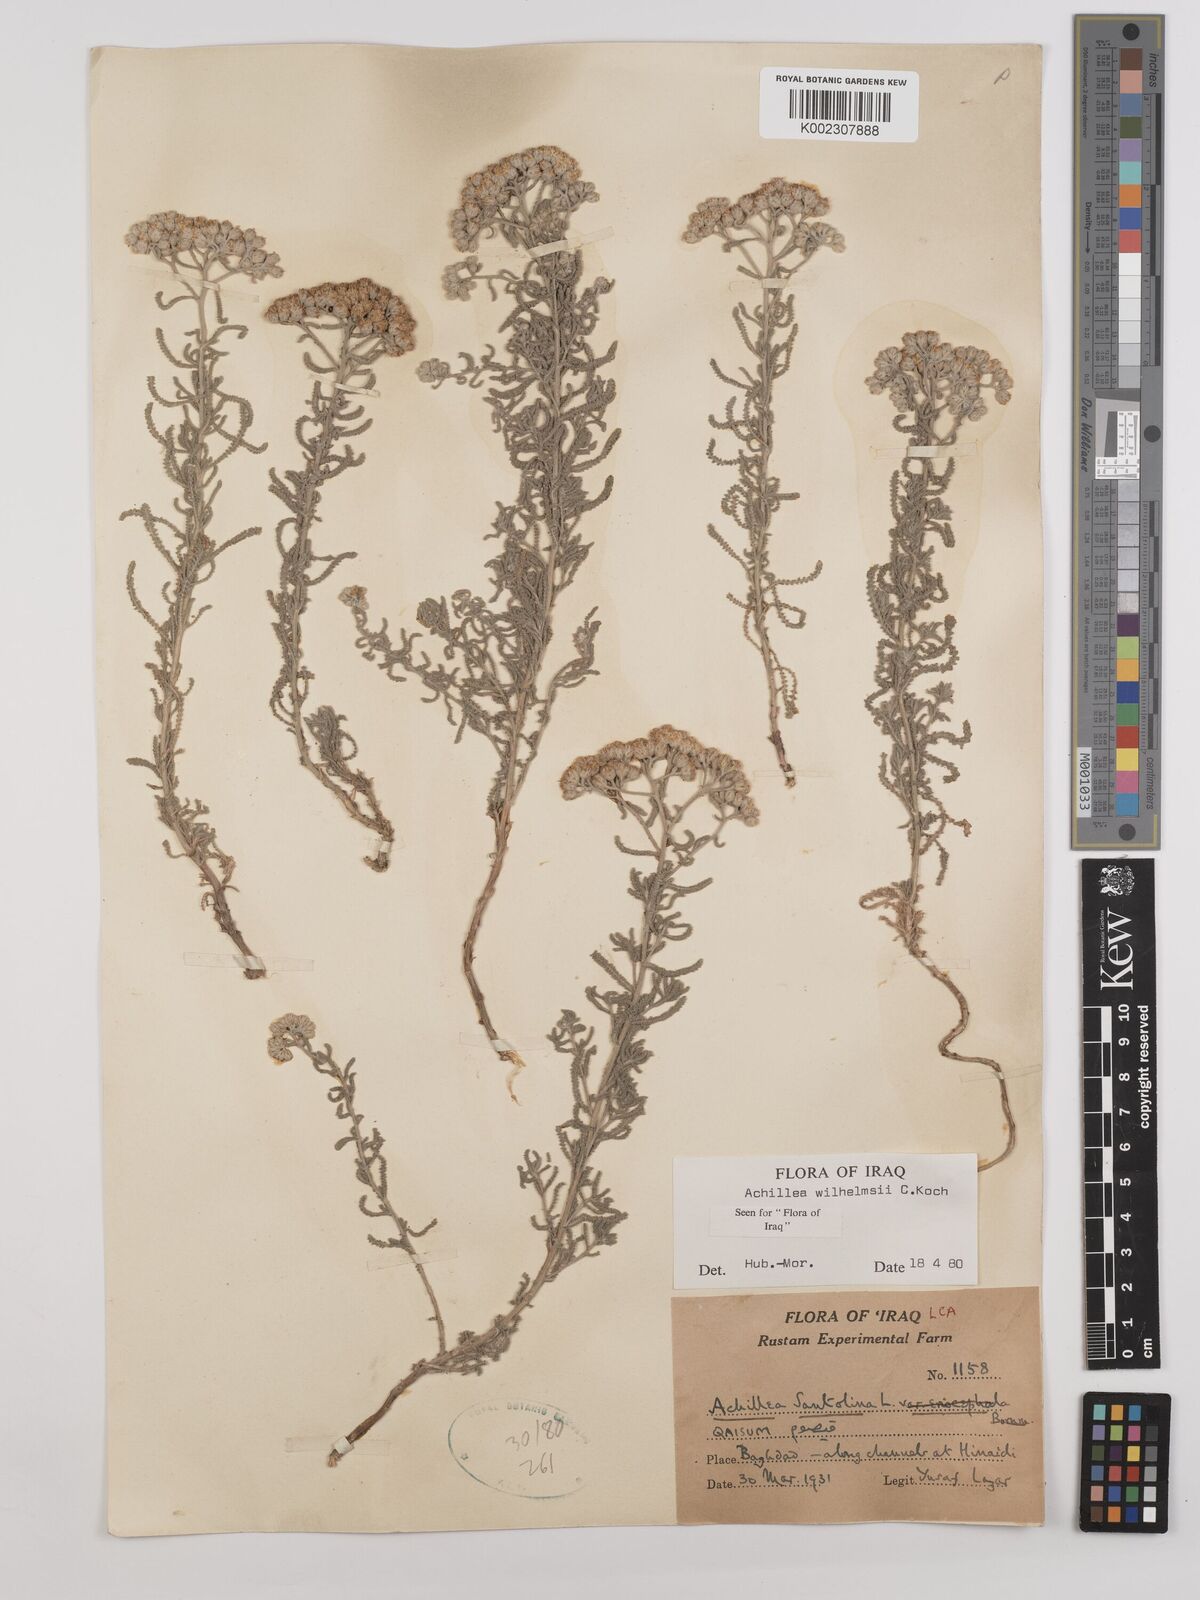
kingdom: Plantae
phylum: Tracheophyta
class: Magnoliopsida
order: Asterales
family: Asteraceae
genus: Achillea
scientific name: Achillea wilhelmsii
